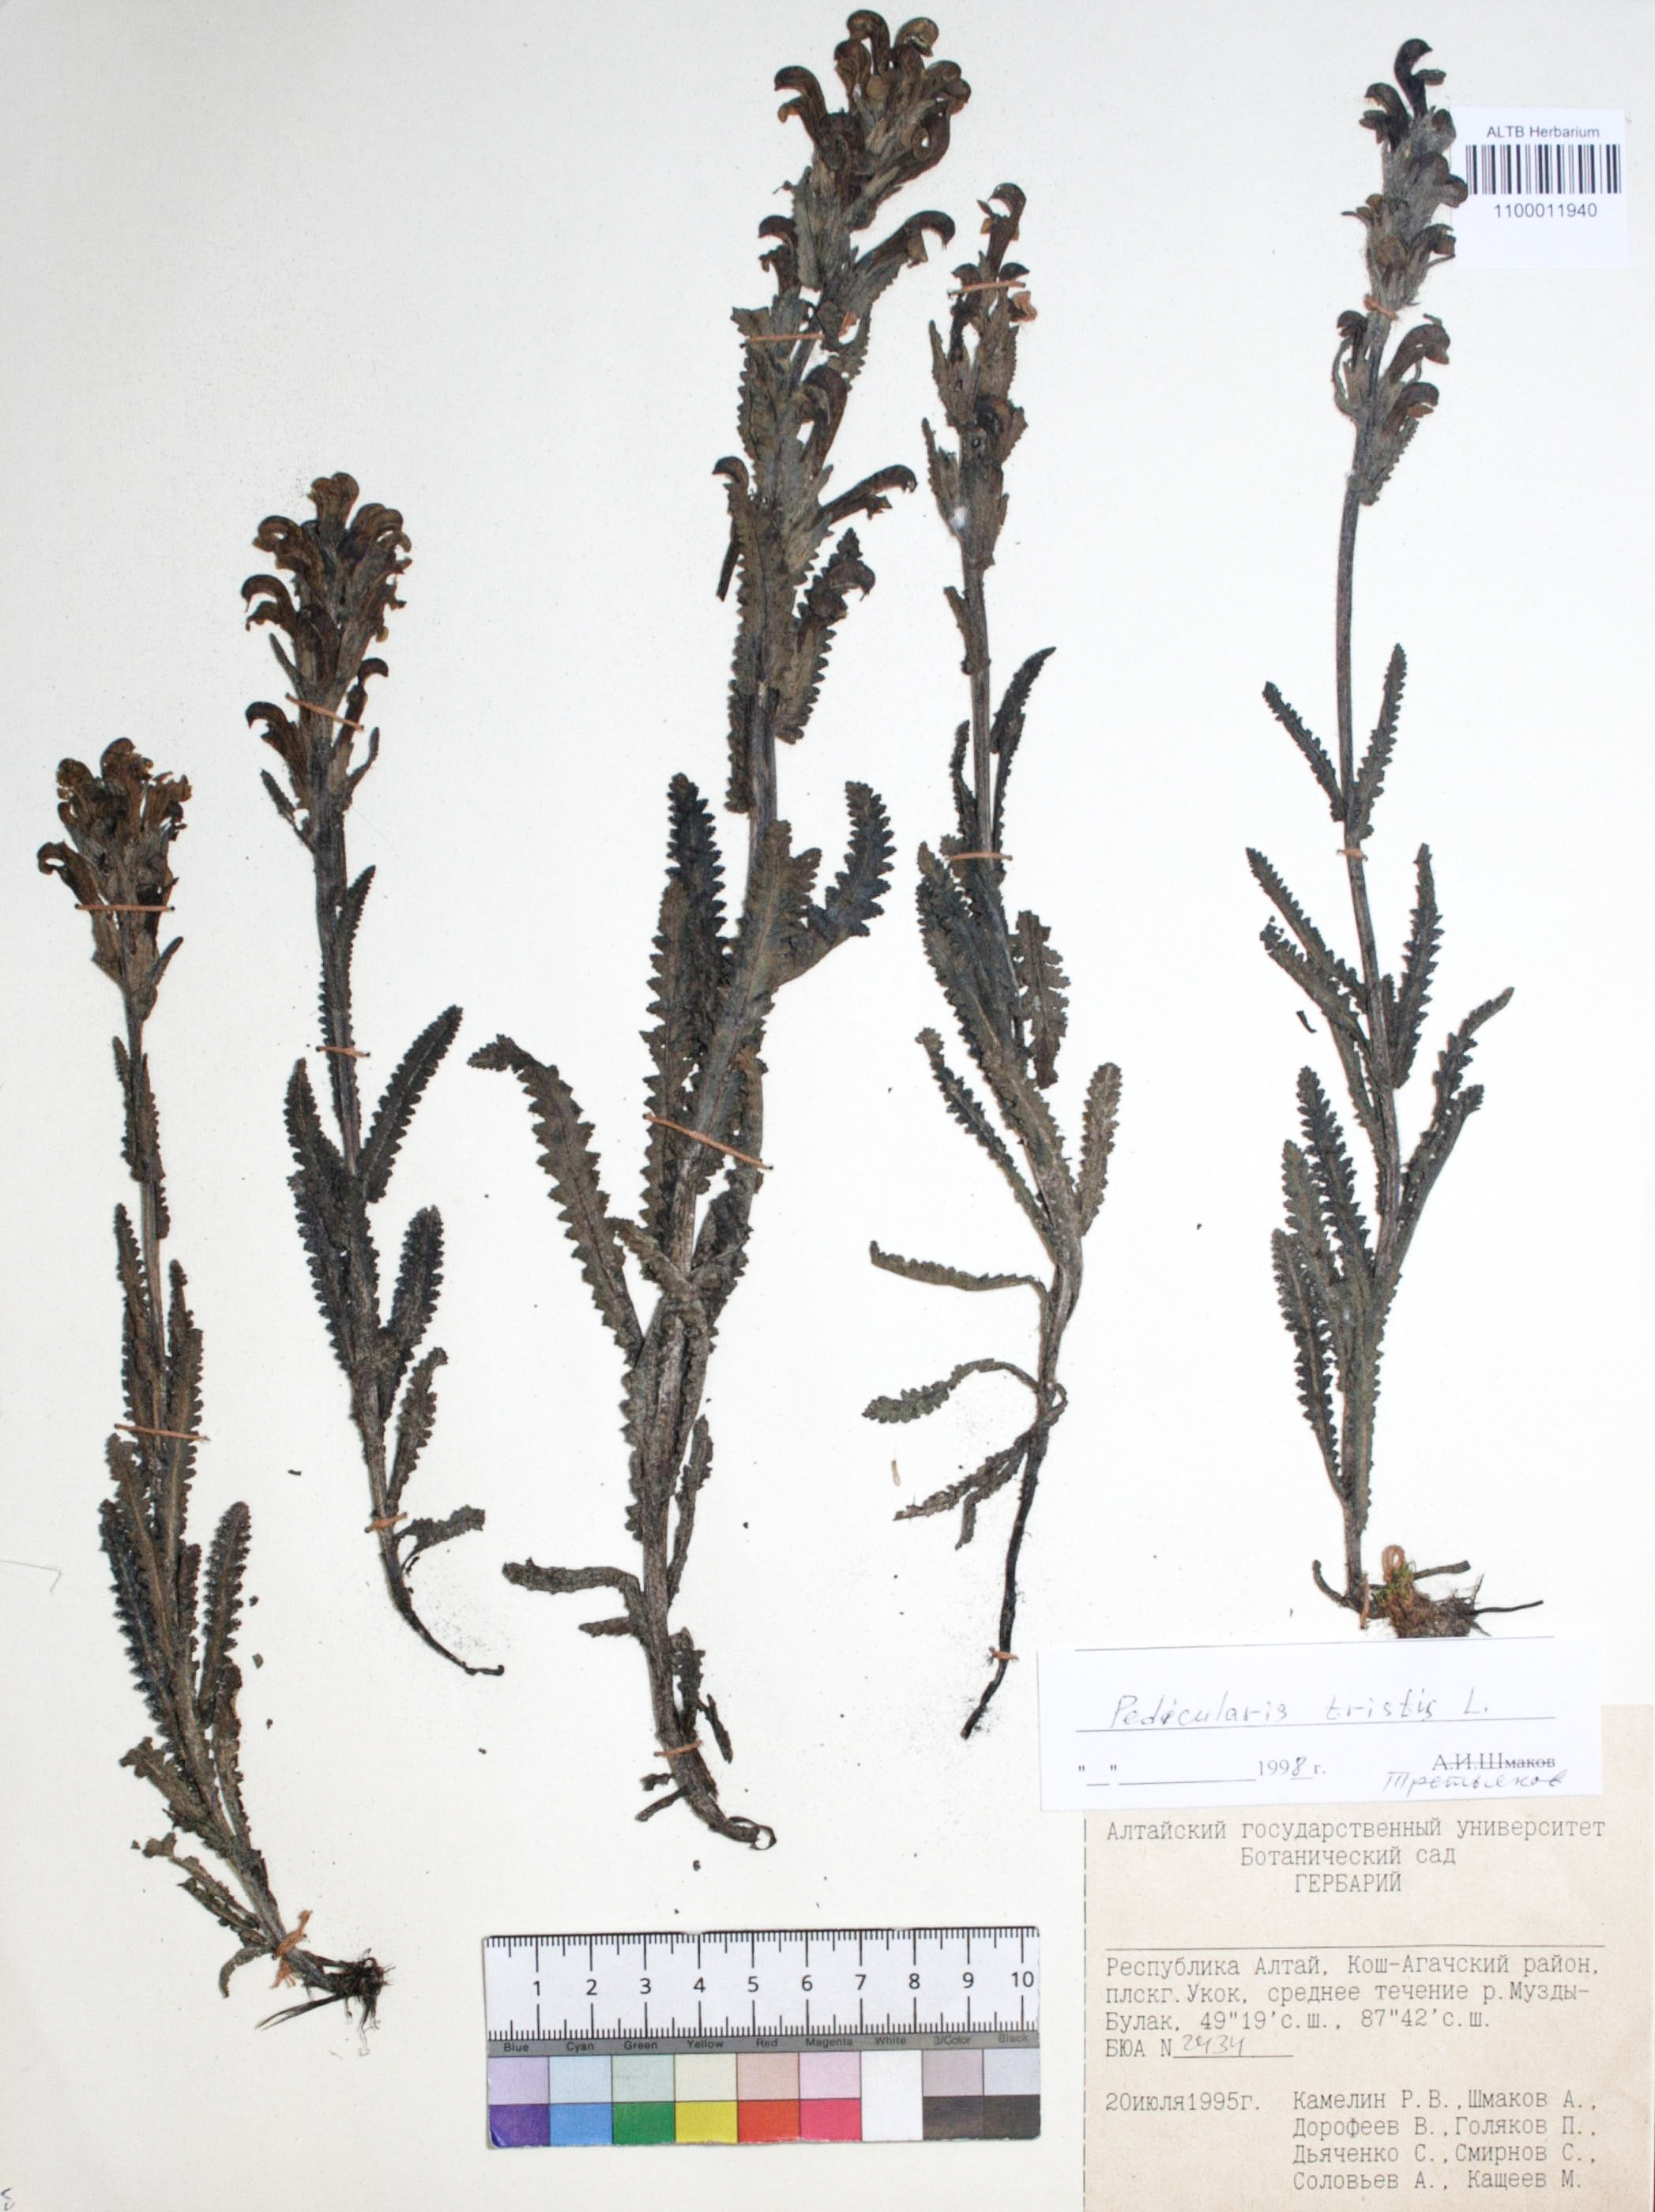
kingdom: Plantae
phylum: Tracheophyta
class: Magnoliopsida
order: Lamiales
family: Orobanchaceae
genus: Pedicularis
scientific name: Pedicularis tristis
